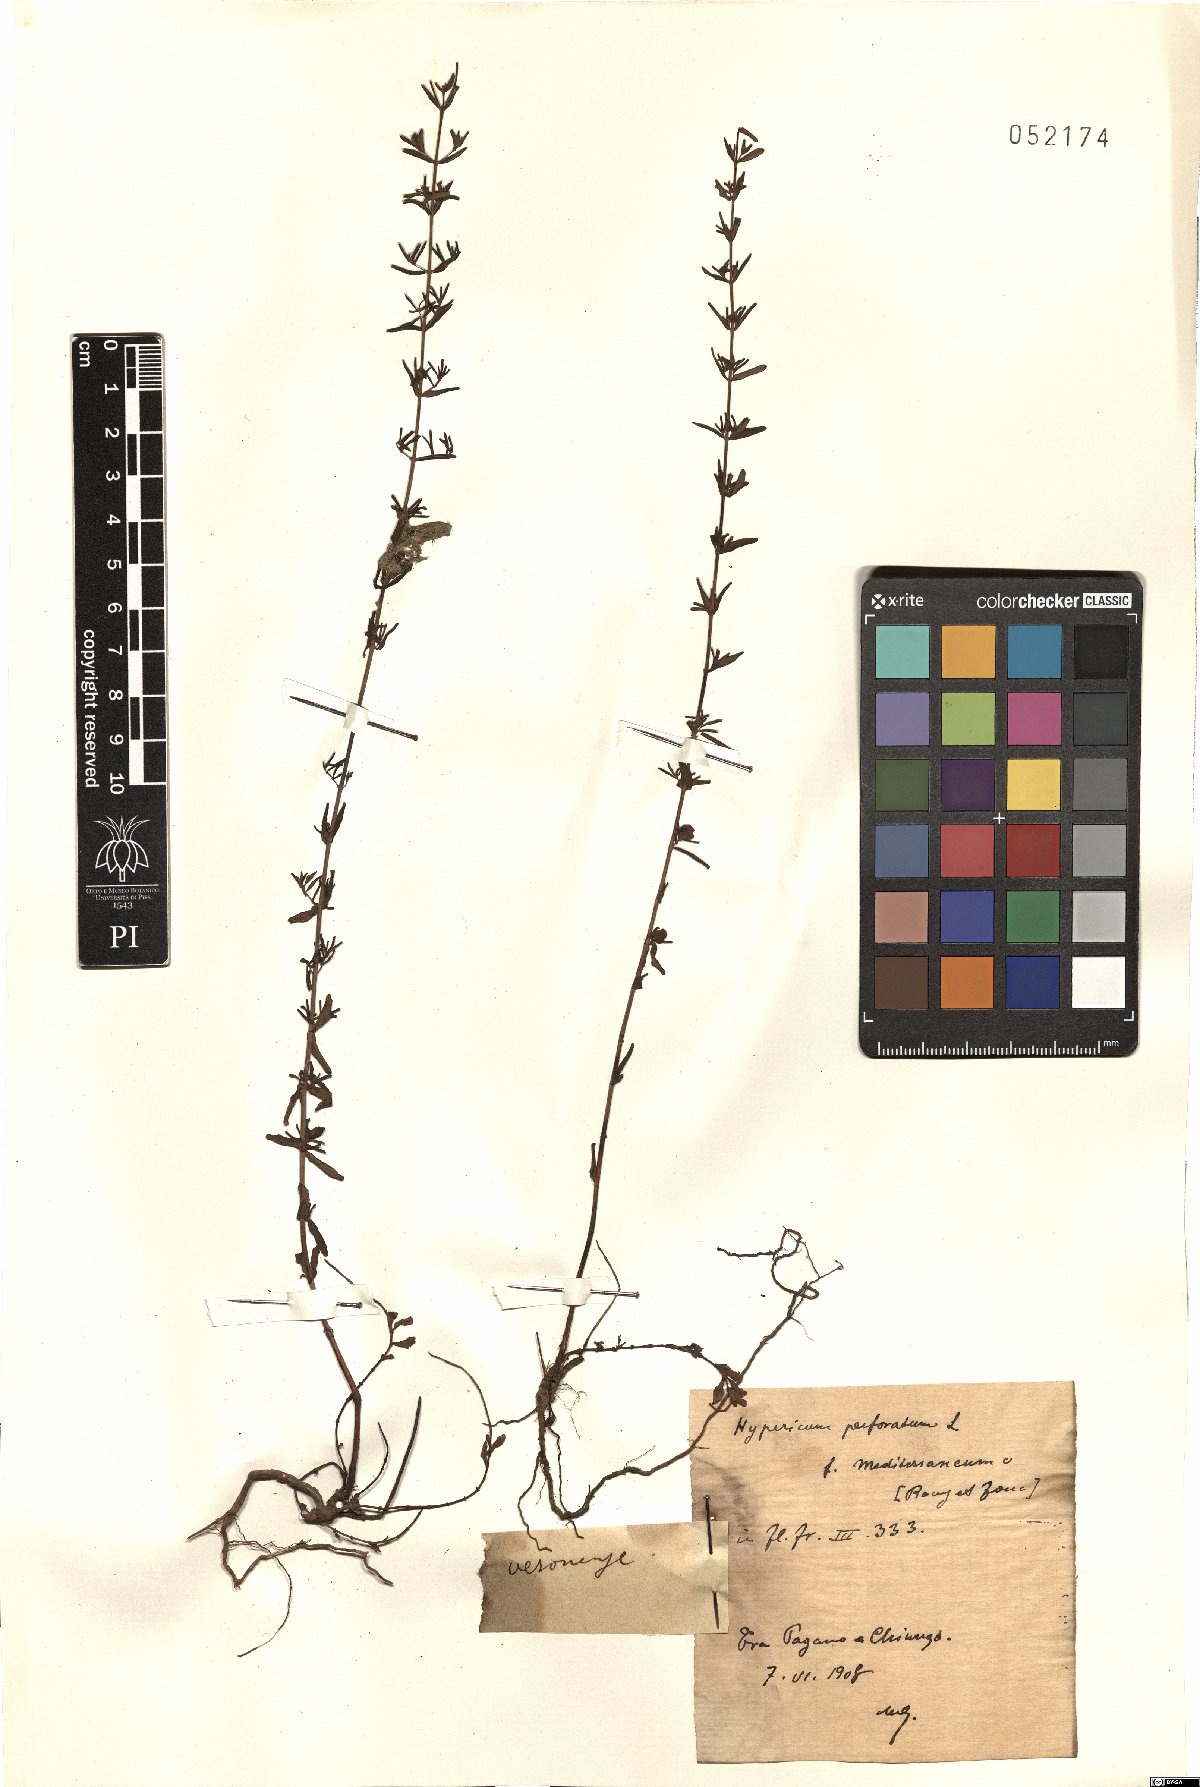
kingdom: Plantae
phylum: Tracheophyta
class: Magnoliopsida
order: Malpighiales
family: Hypericaceae
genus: Hypericum
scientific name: Hypericum perforatum
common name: Common st. johnswort
